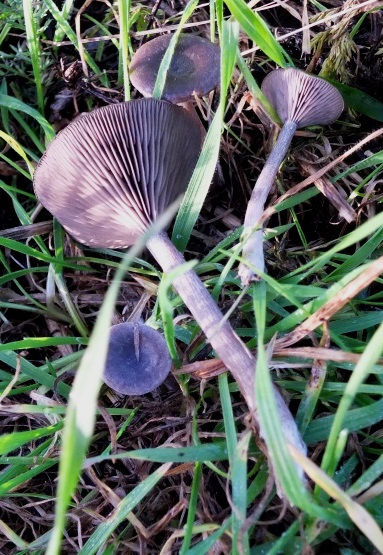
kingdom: Fungi
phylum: Basidiomycota
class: Agaricomycetes
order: Agaricales
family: Pseudoclitocybaceae
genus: Pseudoclitocybe
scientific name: Pseudoclitocybe expallens
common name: lille bægertragthat
